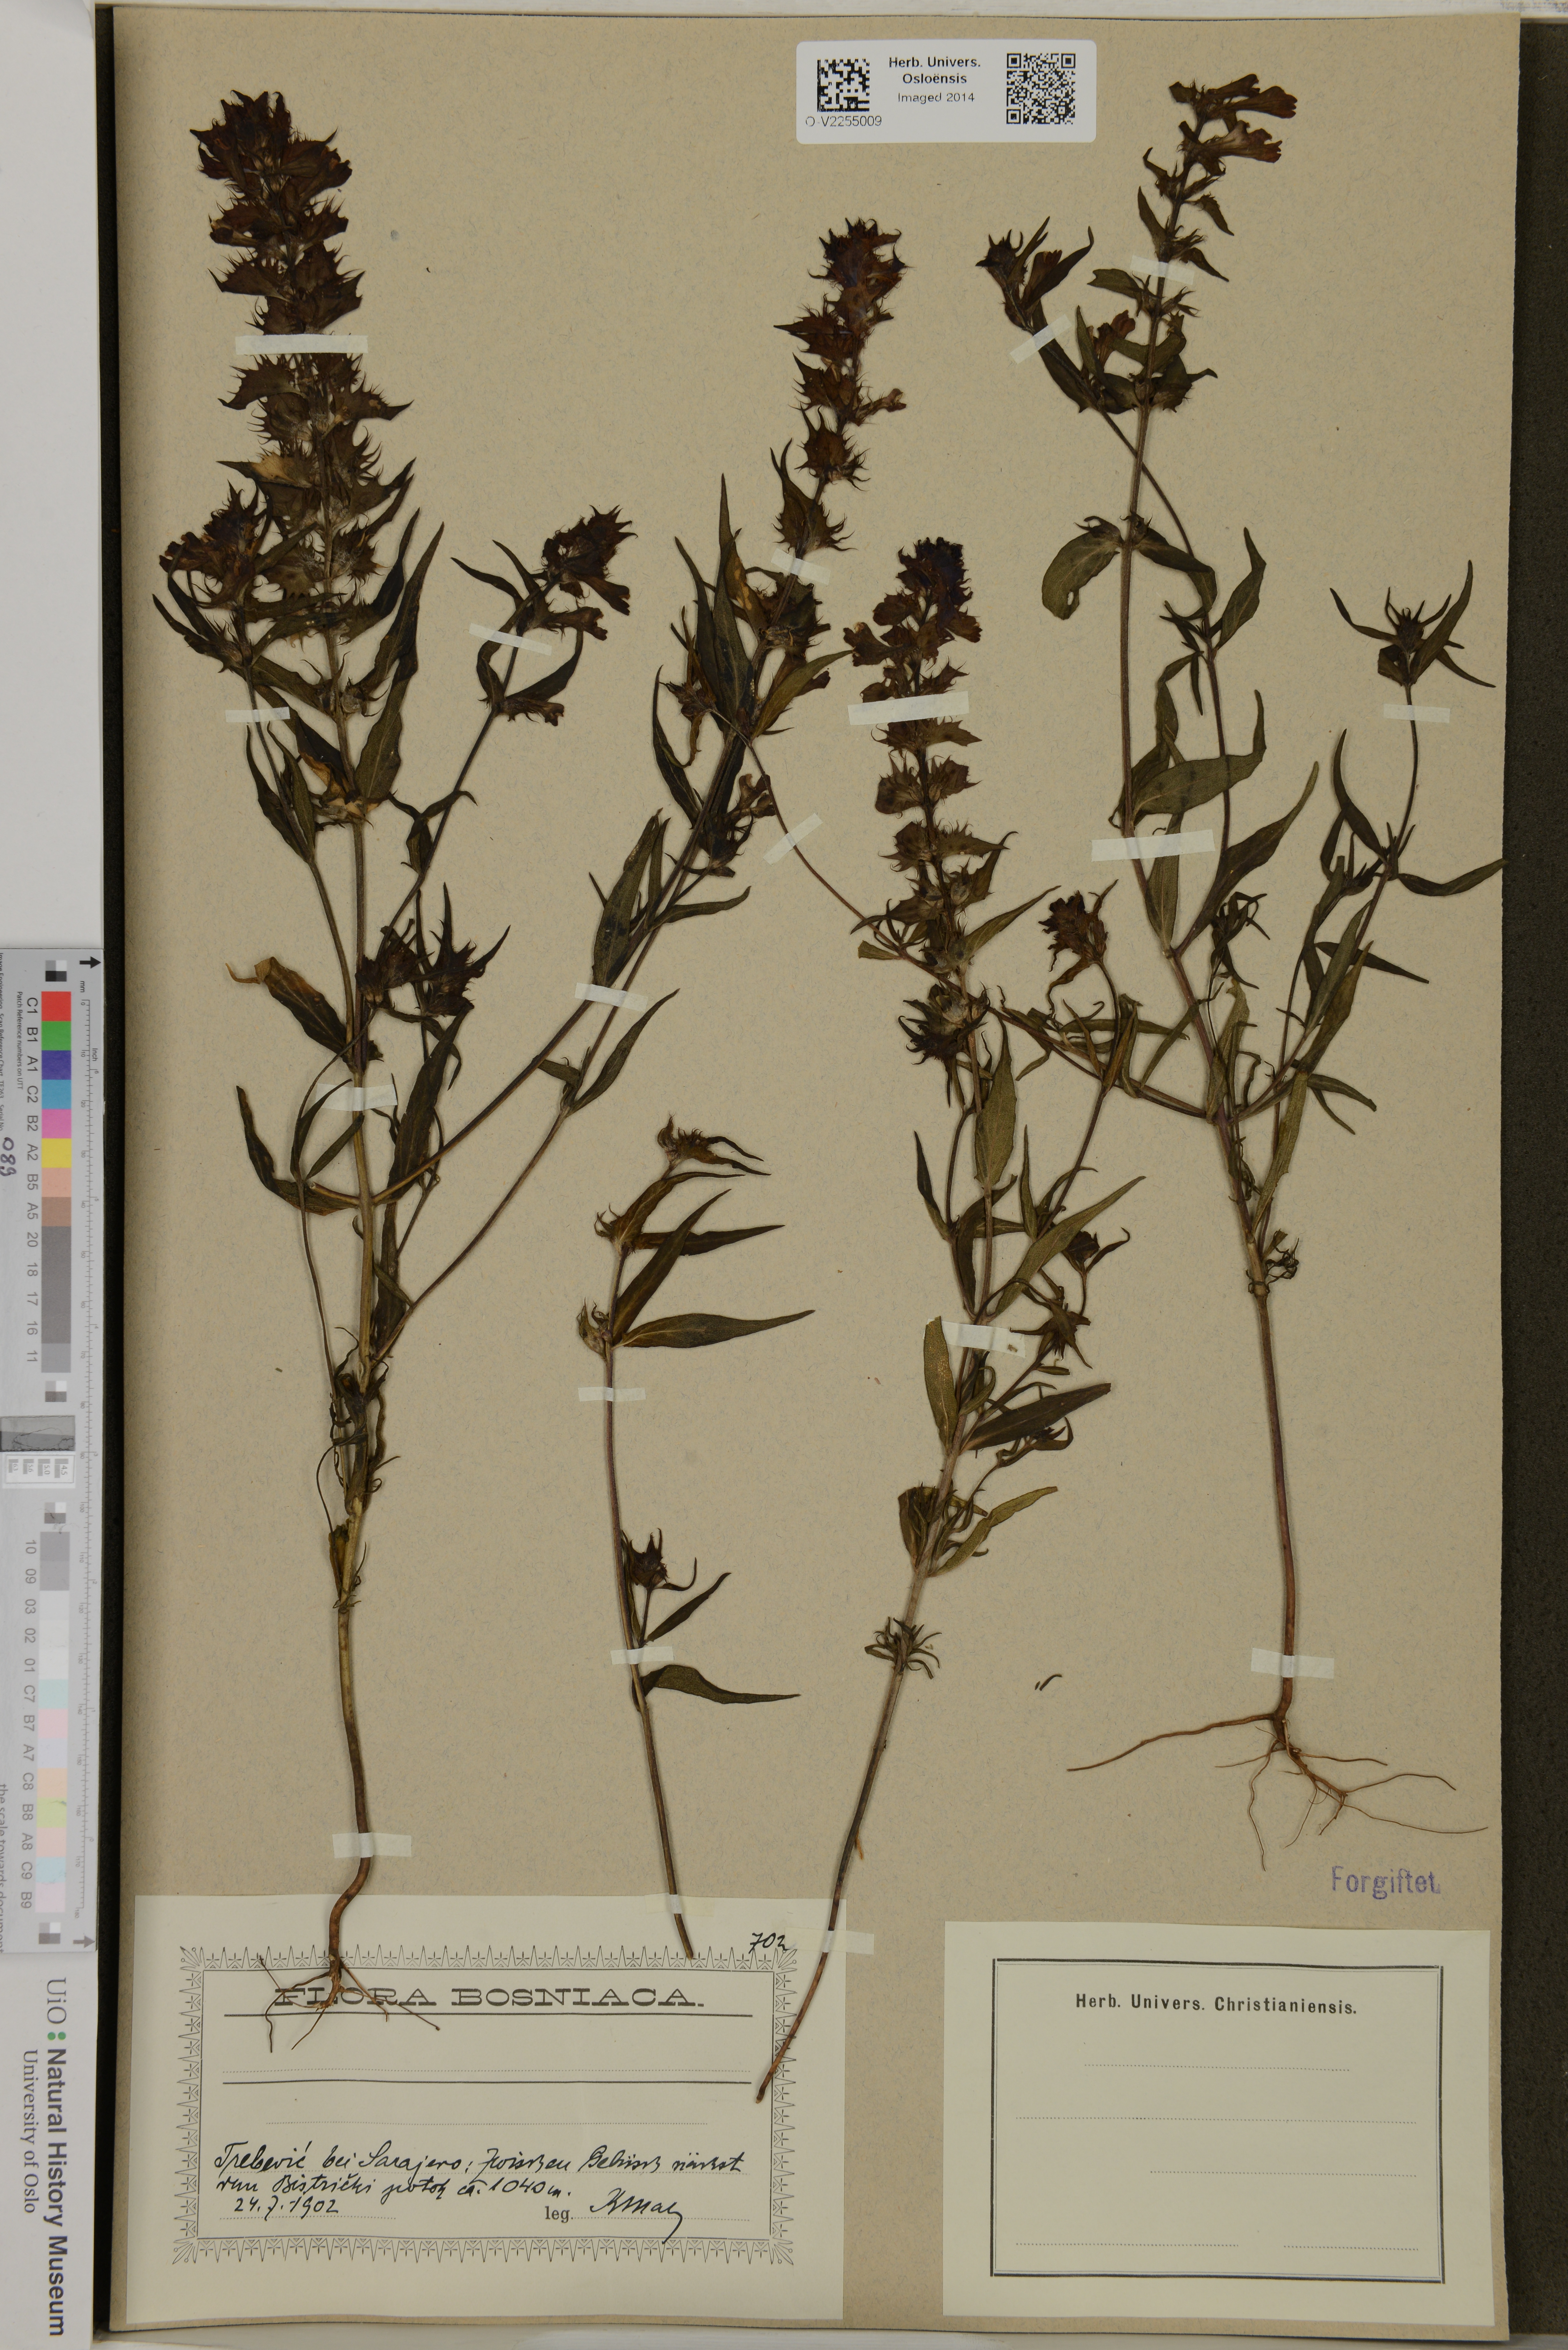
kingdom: Plantae
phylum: Tracheophyta
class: Magnoliopsida
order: Lamiales
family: Orobanchaceae
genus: Melampyrum
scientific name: Melampyrum
